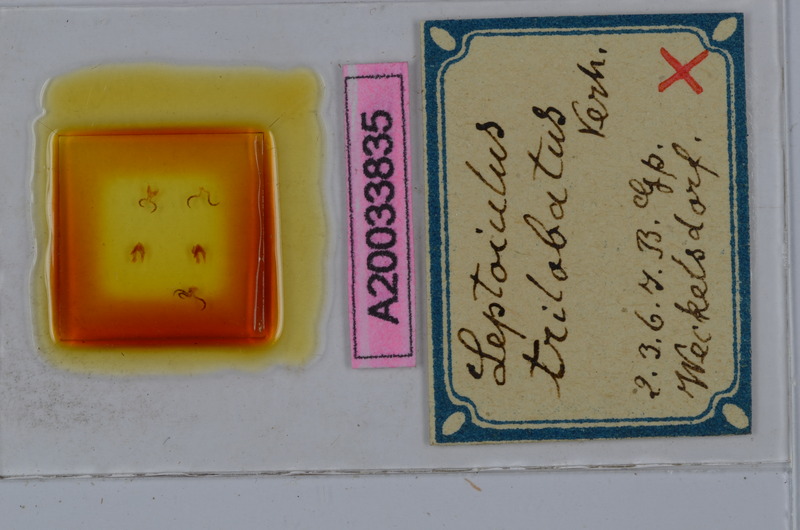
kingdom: Animalia
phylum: Arthropoda
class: Diplopoda
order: Julida
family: Julidae
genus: Leptoiulus
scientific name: Leptoiulus trilobatus
